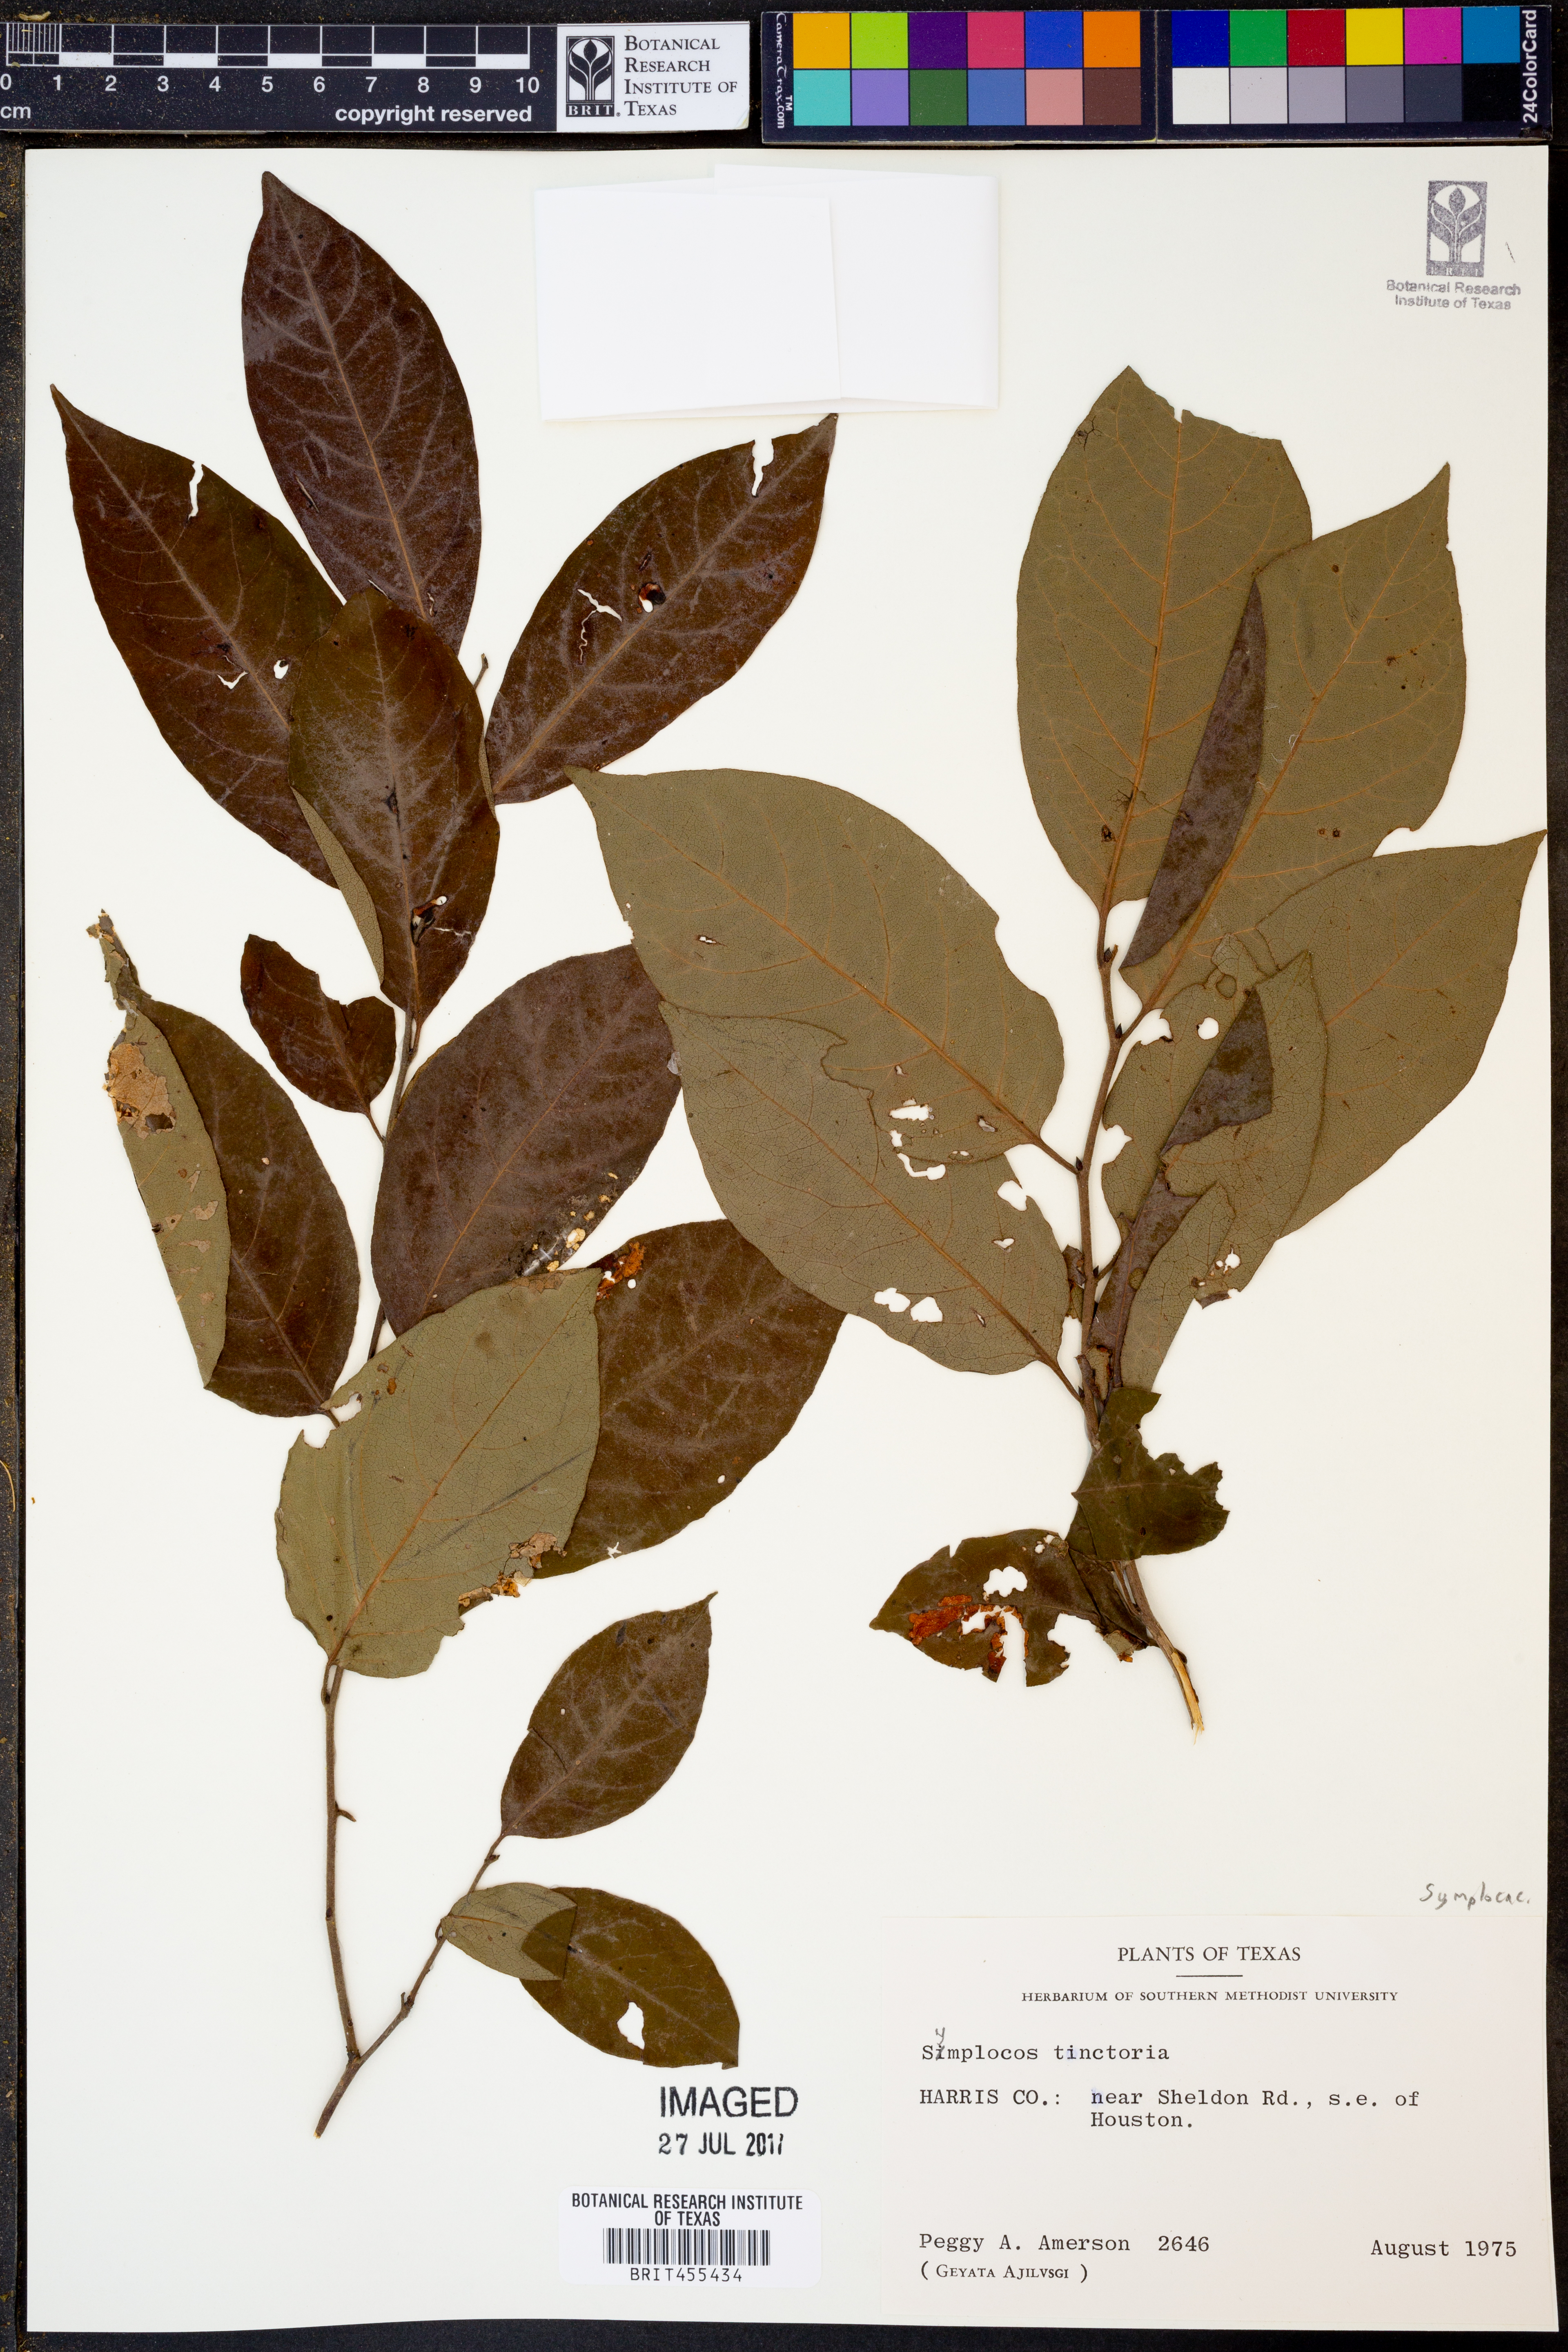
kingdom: Plantae
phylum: Tracheophyta
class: Magnoliopsida
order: Ericales
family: Symplocaceae
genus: Symplocos
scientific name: Symplocos tinctoria
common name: Horse-sugar
